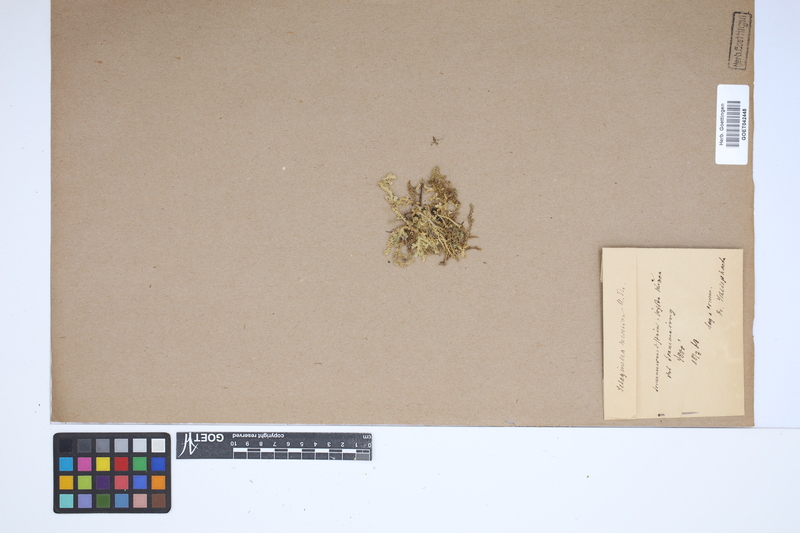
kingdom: Plantae
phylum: Tracheophyta
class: Lycopodiopsida
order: Selaginellales
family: Selaginellaceae
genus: Selaginella
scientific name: Selaginella helvetica
